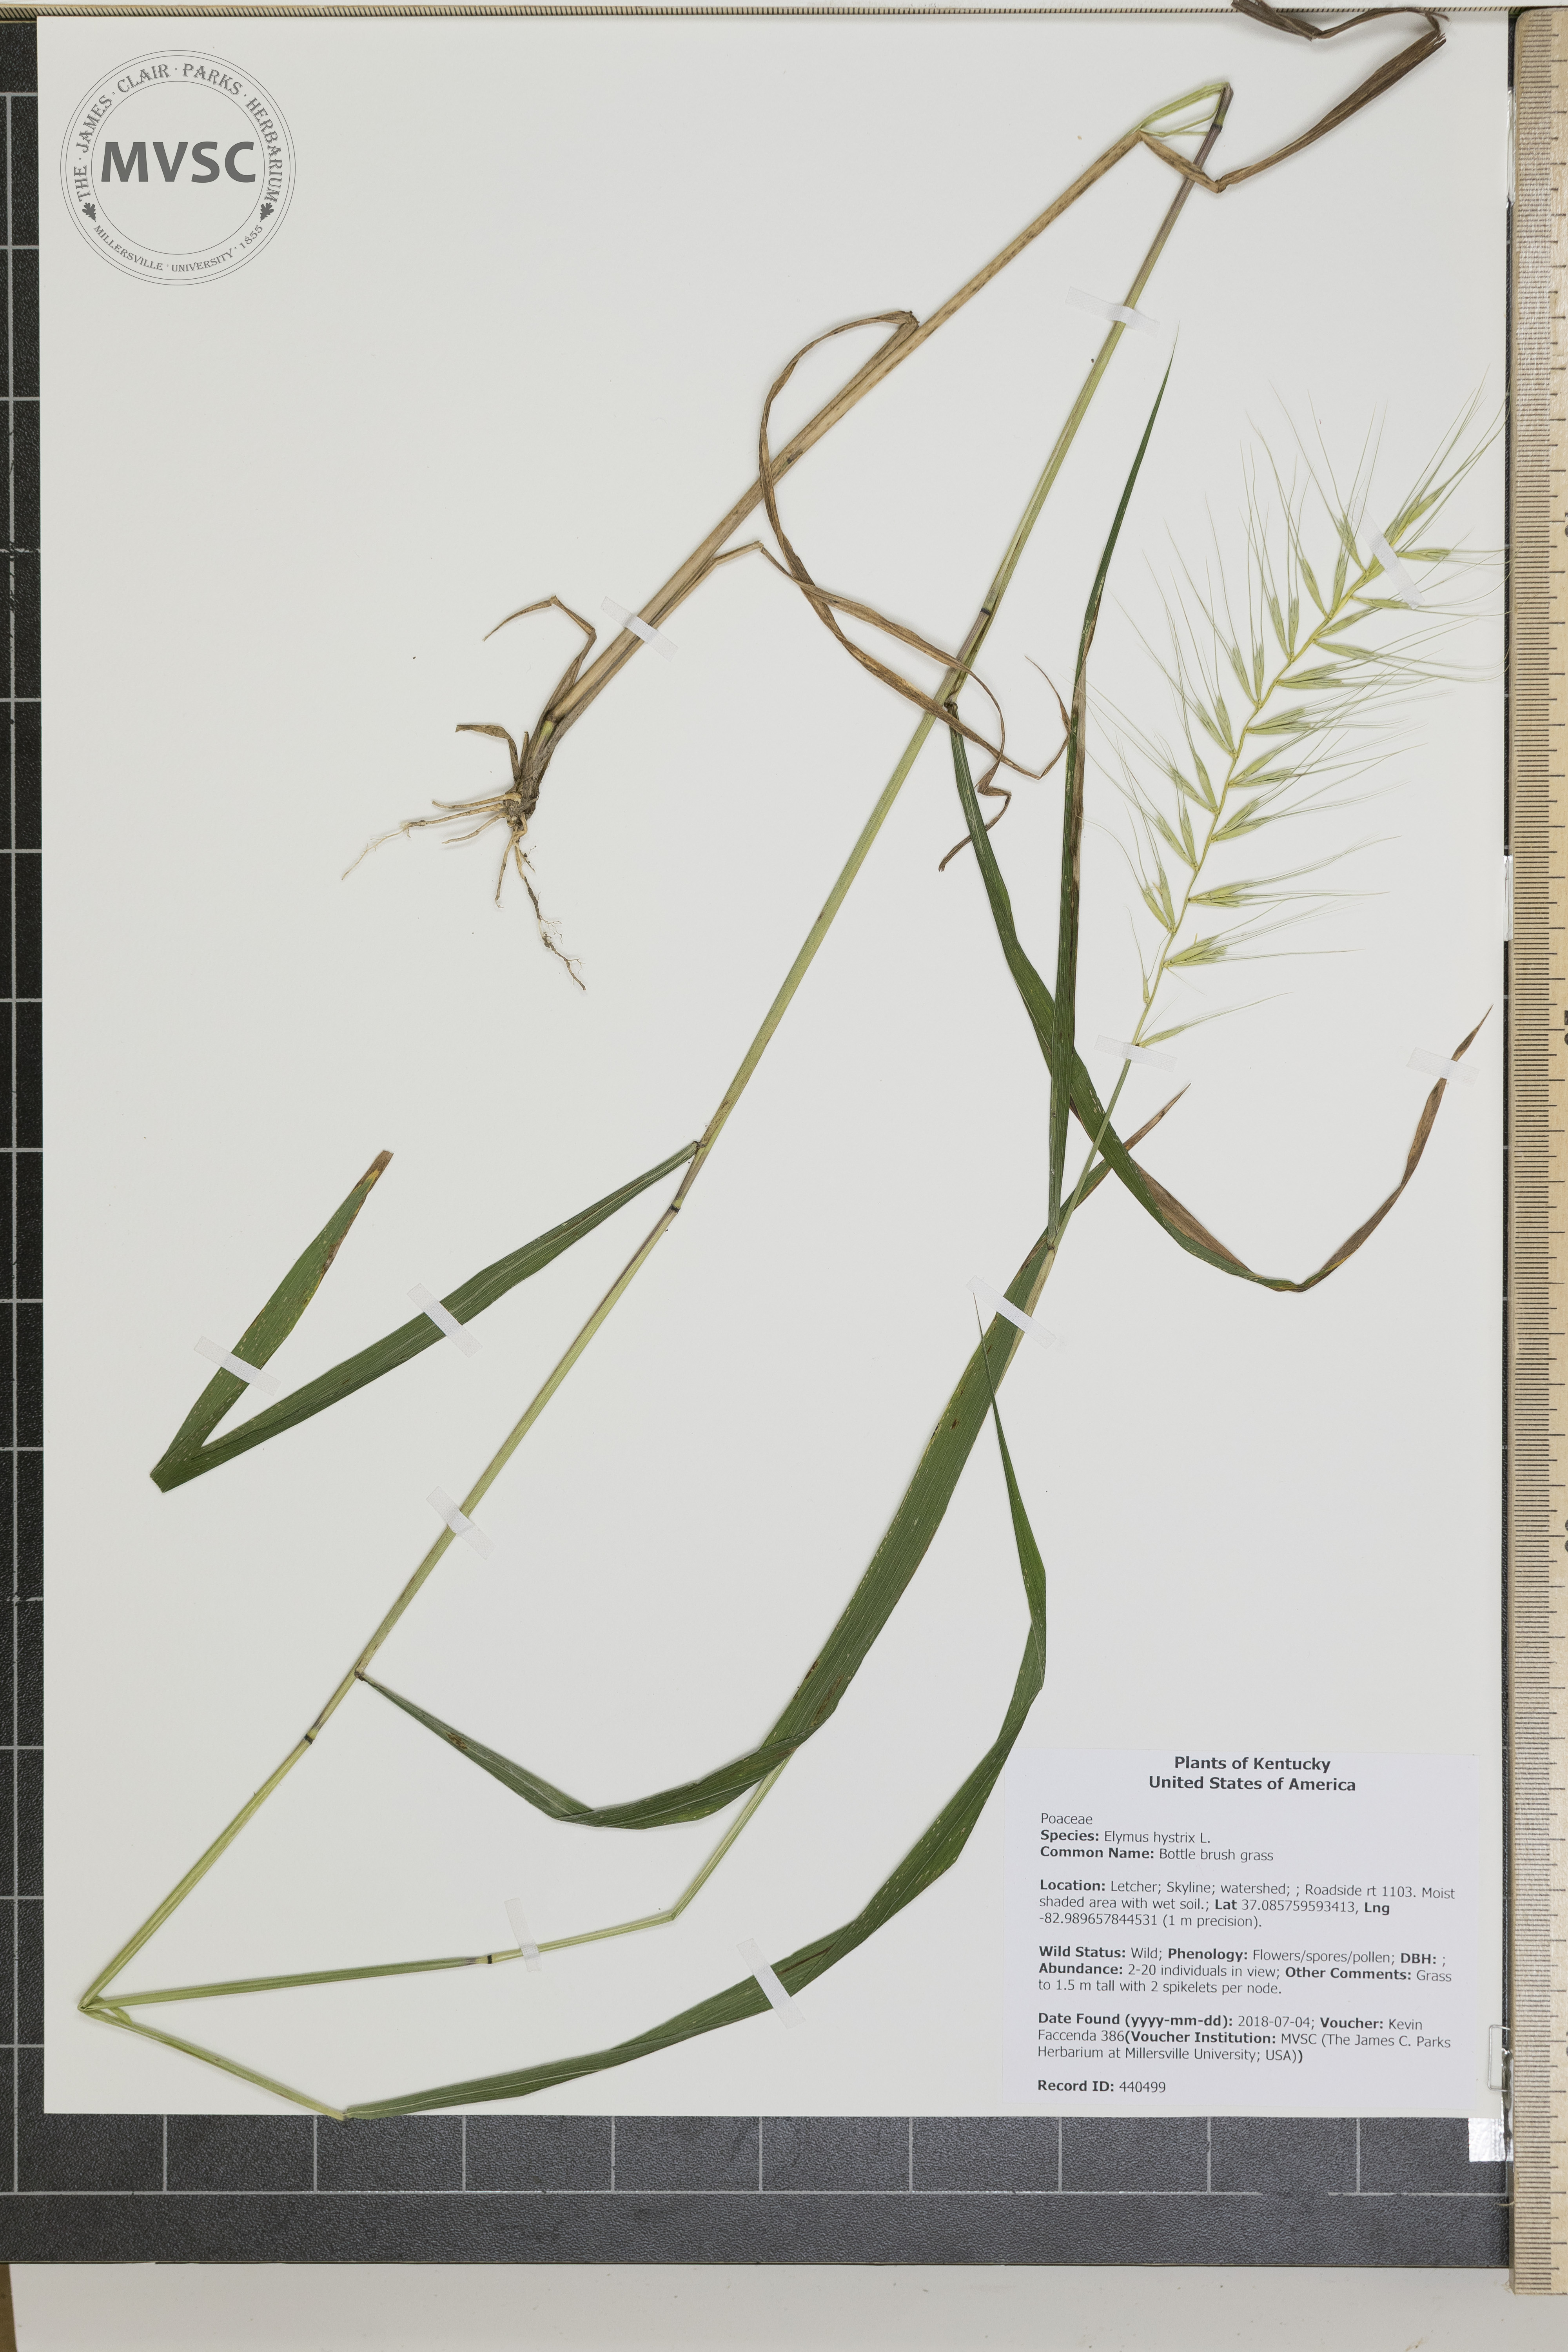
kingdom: Plantae
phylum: Tracheophyta
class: Liliopsida
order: Poales
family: Poaceae
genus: Elymus
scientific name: Elymus hystrix
